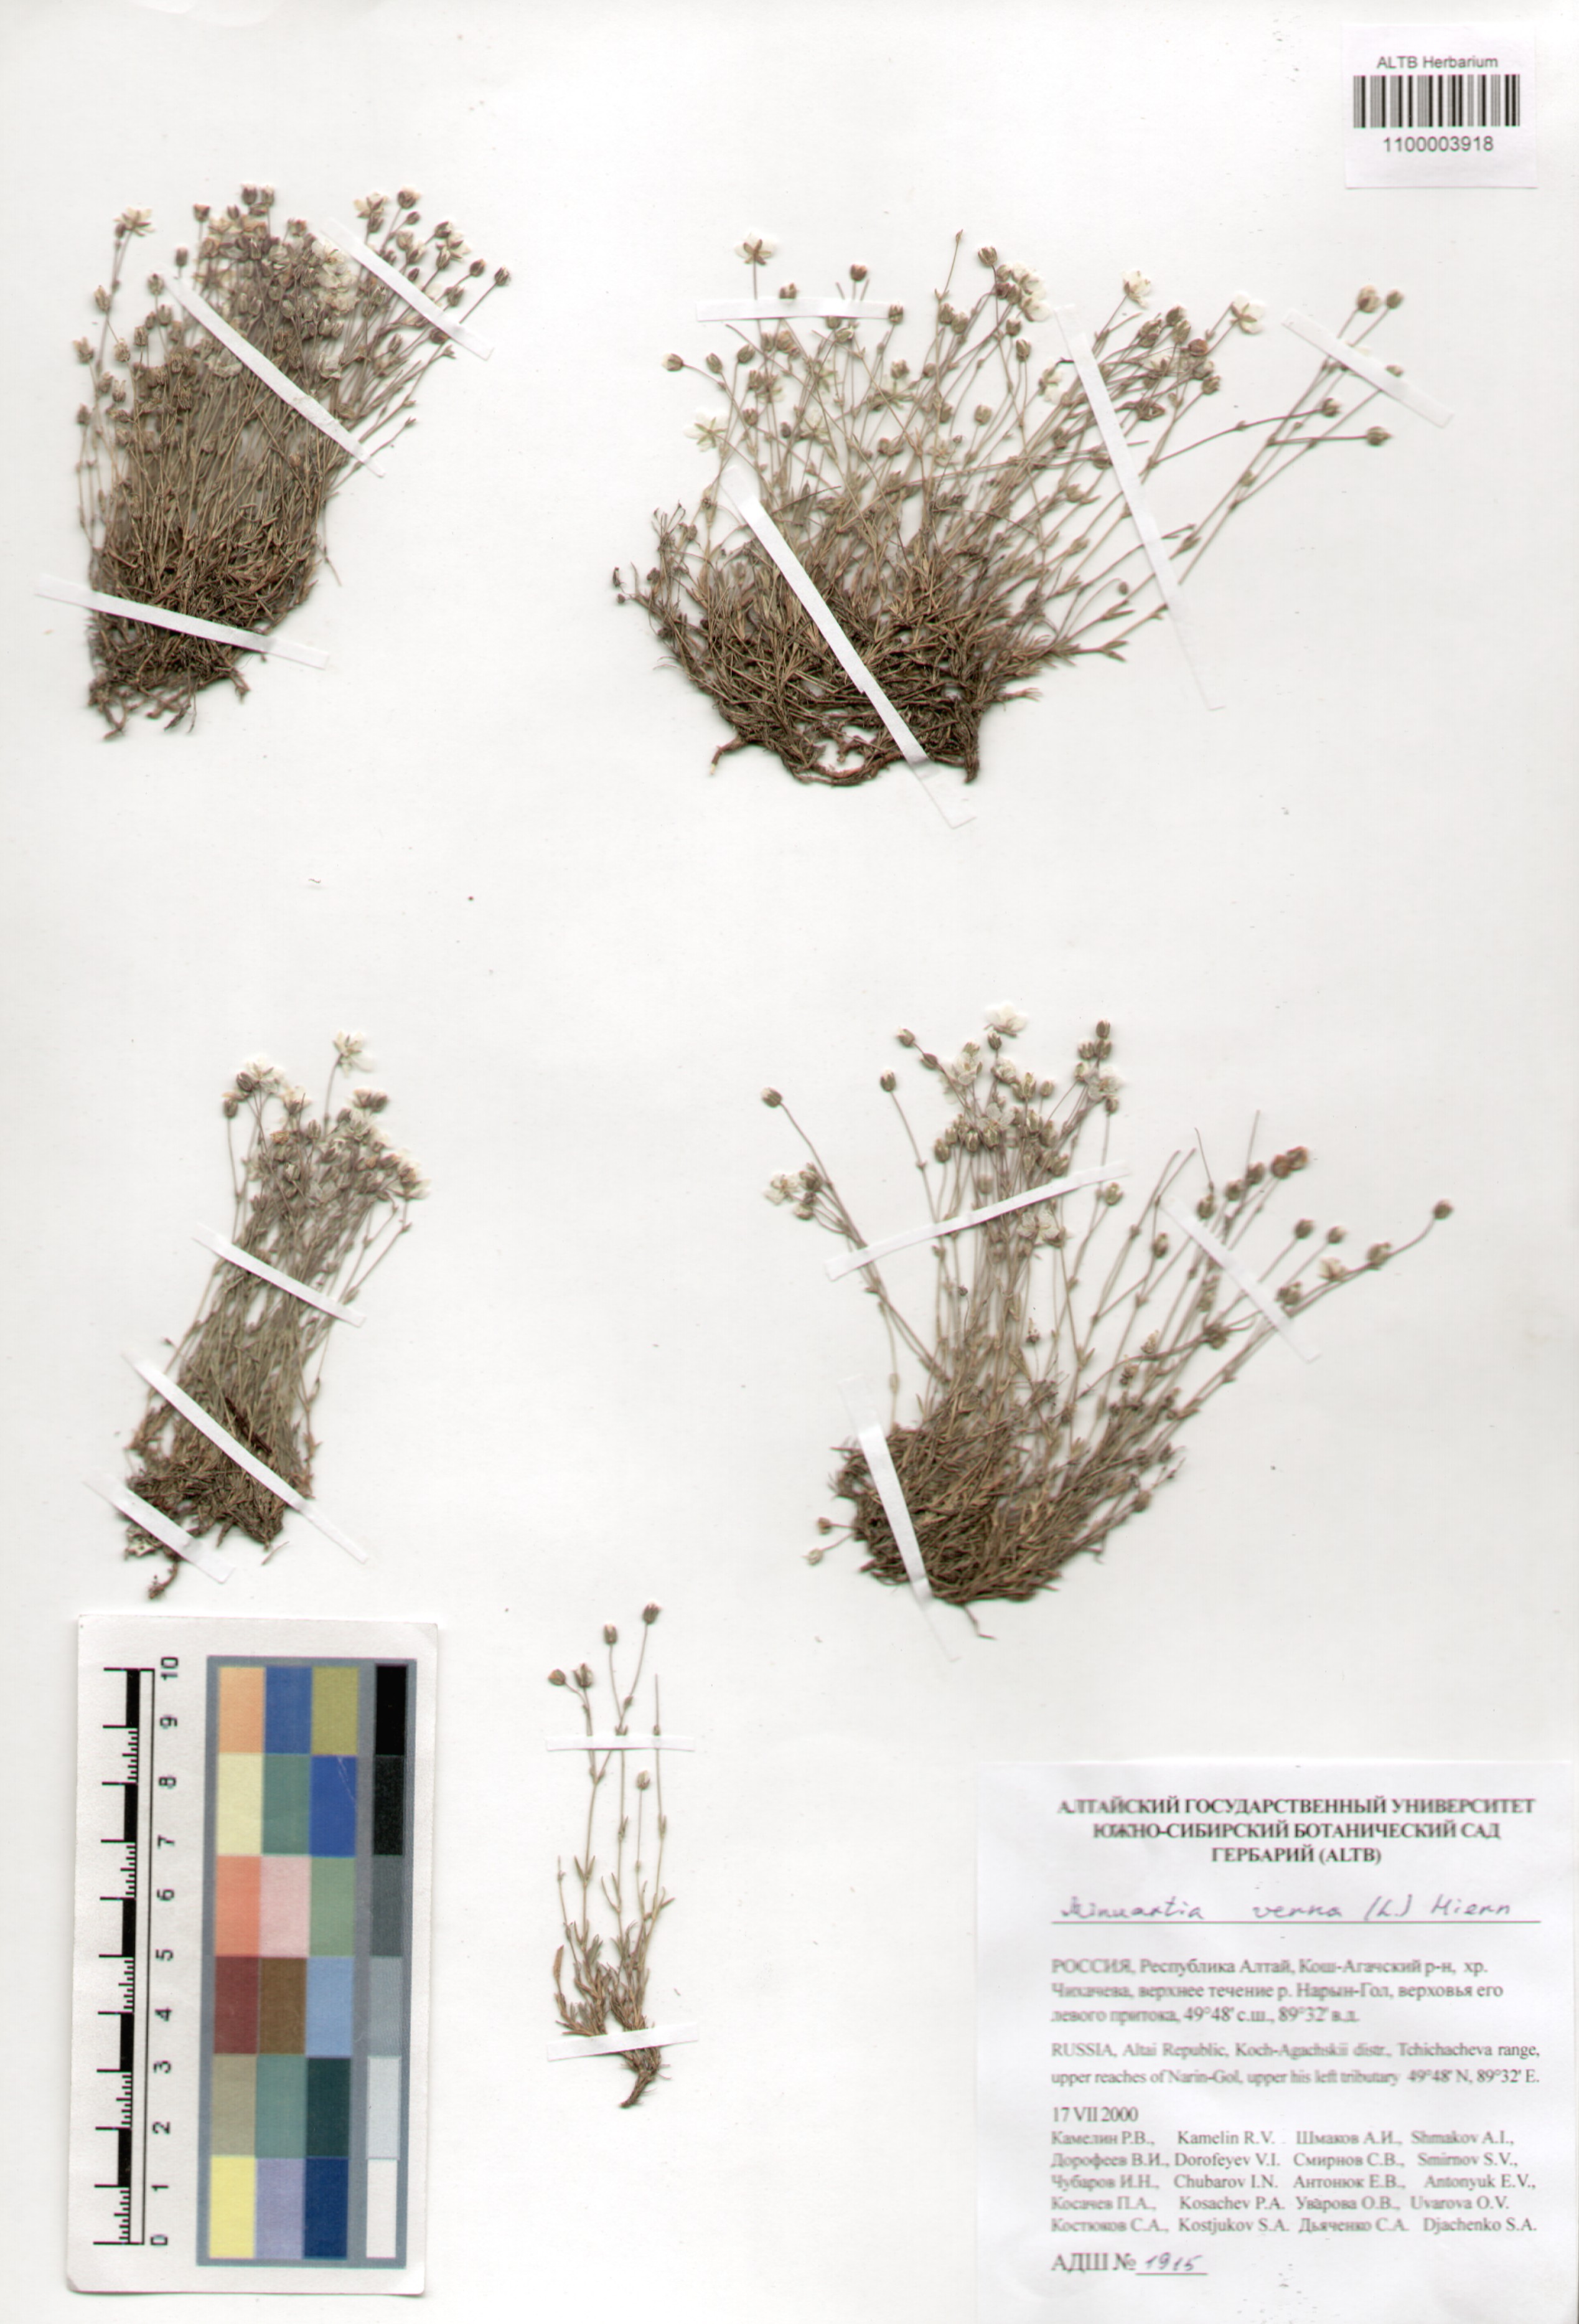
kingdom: Plantae
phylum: Tracheophyta
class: Magnoliopsida
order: Caryophyllales
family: Caryophyllaceae
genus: Sabulina
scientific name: Sabulina verna
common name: Spring sandwort
